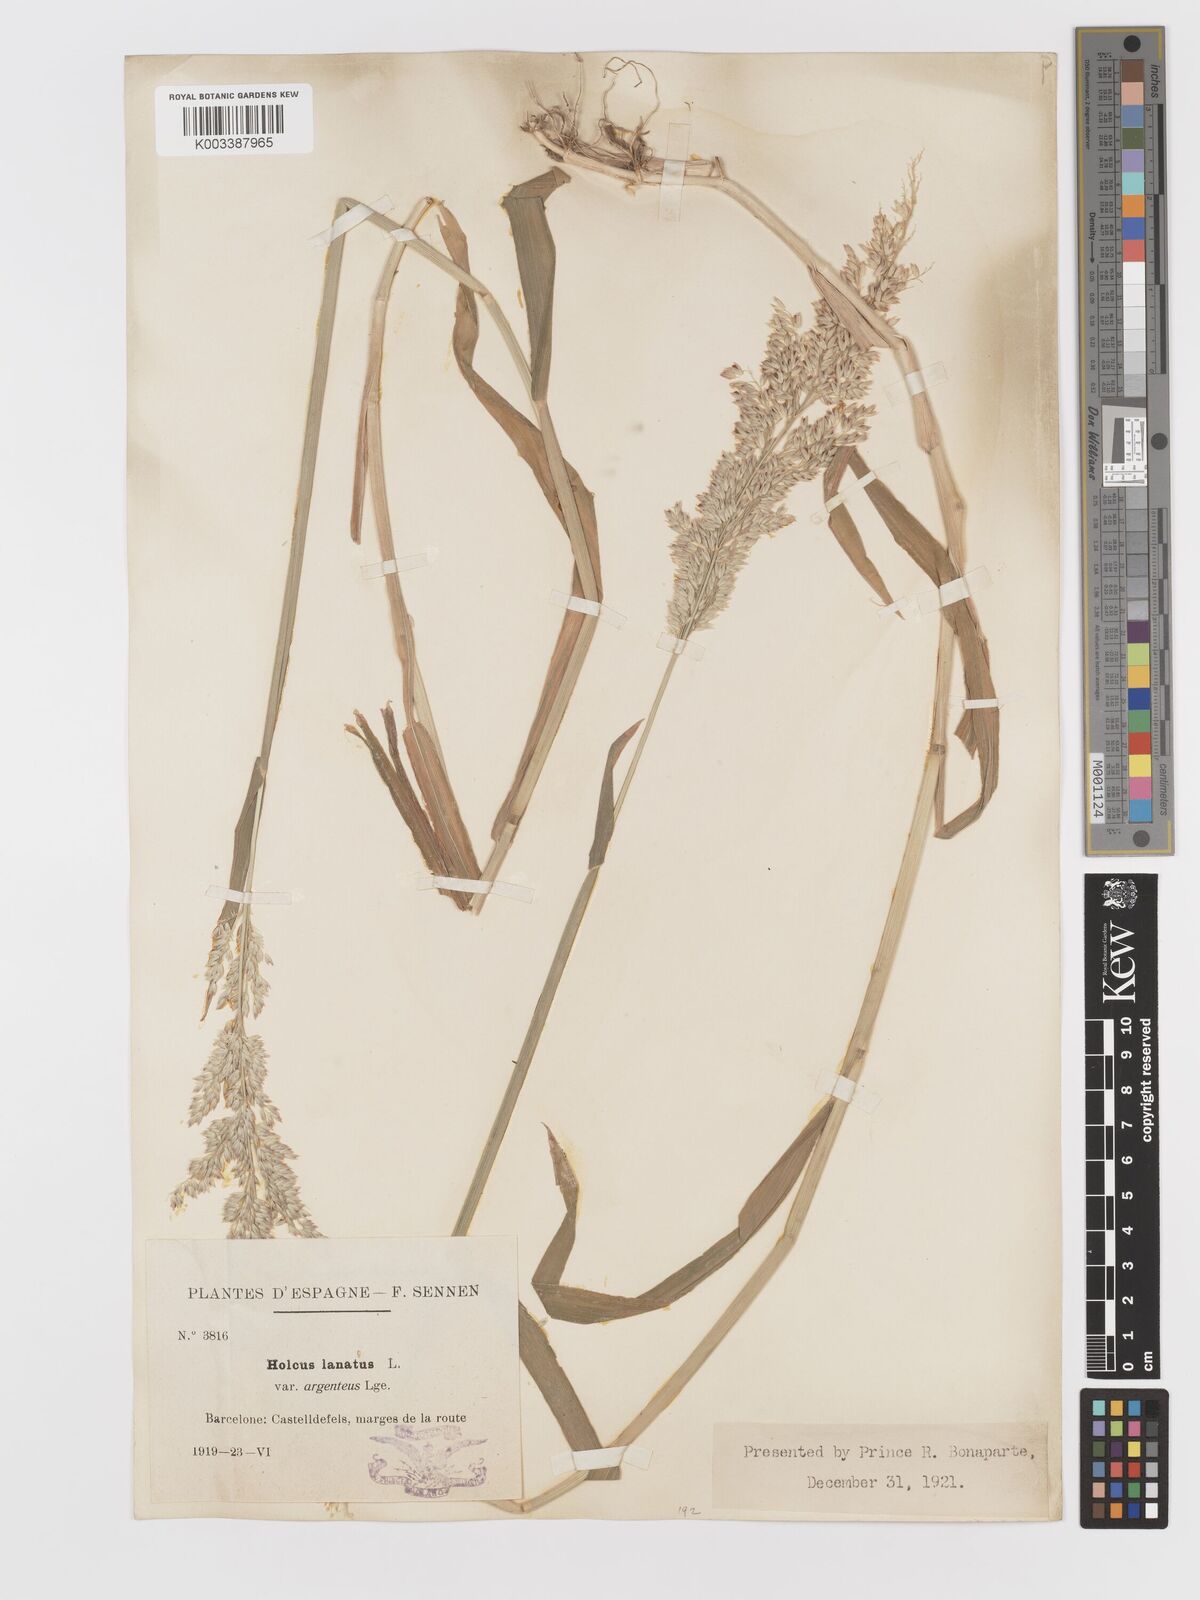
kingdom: Plantae
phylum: Tracheophyta
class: Liliopsida
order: Poales
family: Poaceae
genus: Holcus
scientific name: Holcus lanatus
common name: Yorkshire-fog
